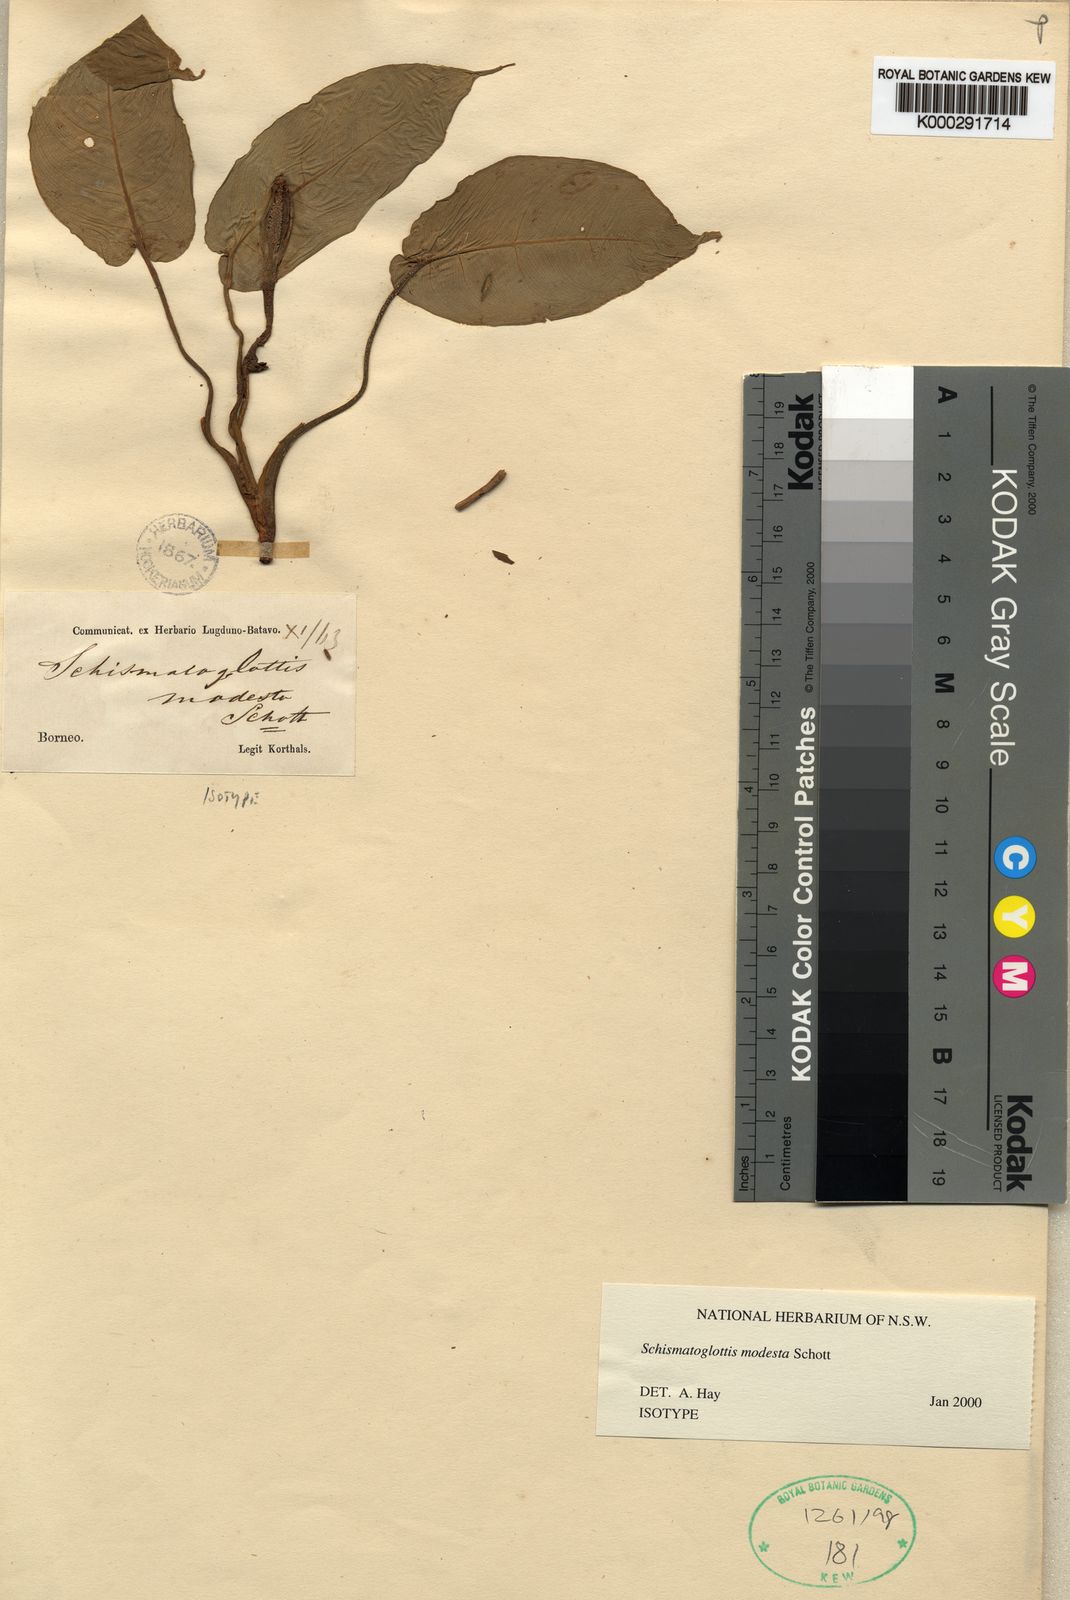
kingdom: Plantae
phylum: Tracheophyta
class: Liliopsida
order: Alismatales
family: Araceae
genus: Schismatoglottis
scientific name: Schismatoglottis modesta
